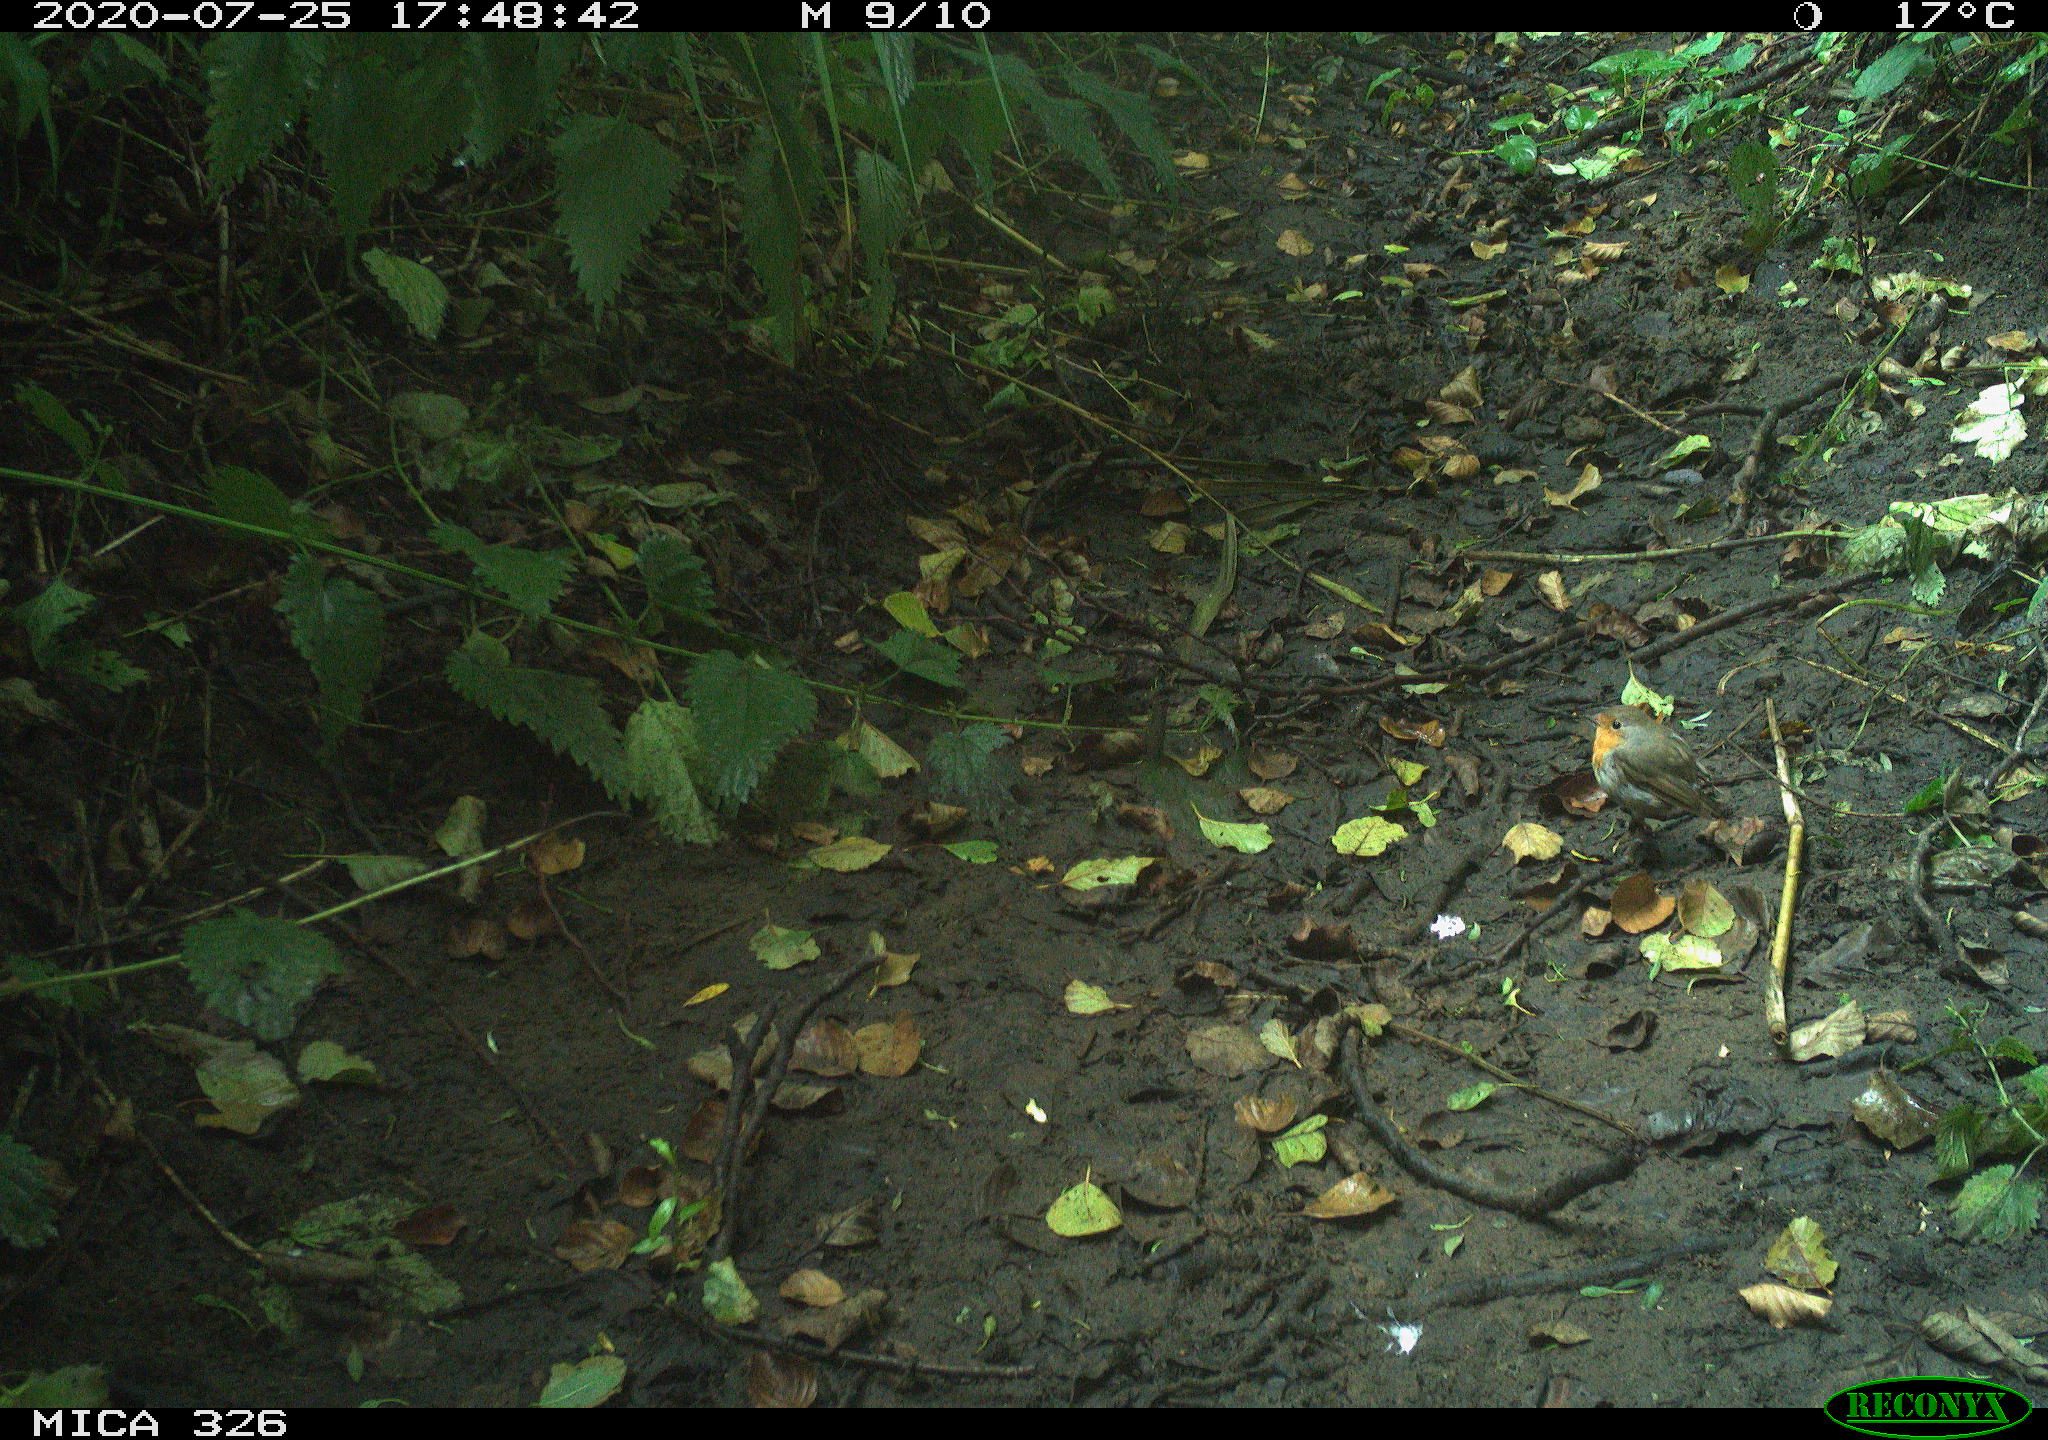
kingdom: Animalia
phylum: Chordata
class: Aves
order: Passeriformes
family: Muscicapidae
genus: Erithacus
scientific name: Erithacus rubecula
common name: European robin
